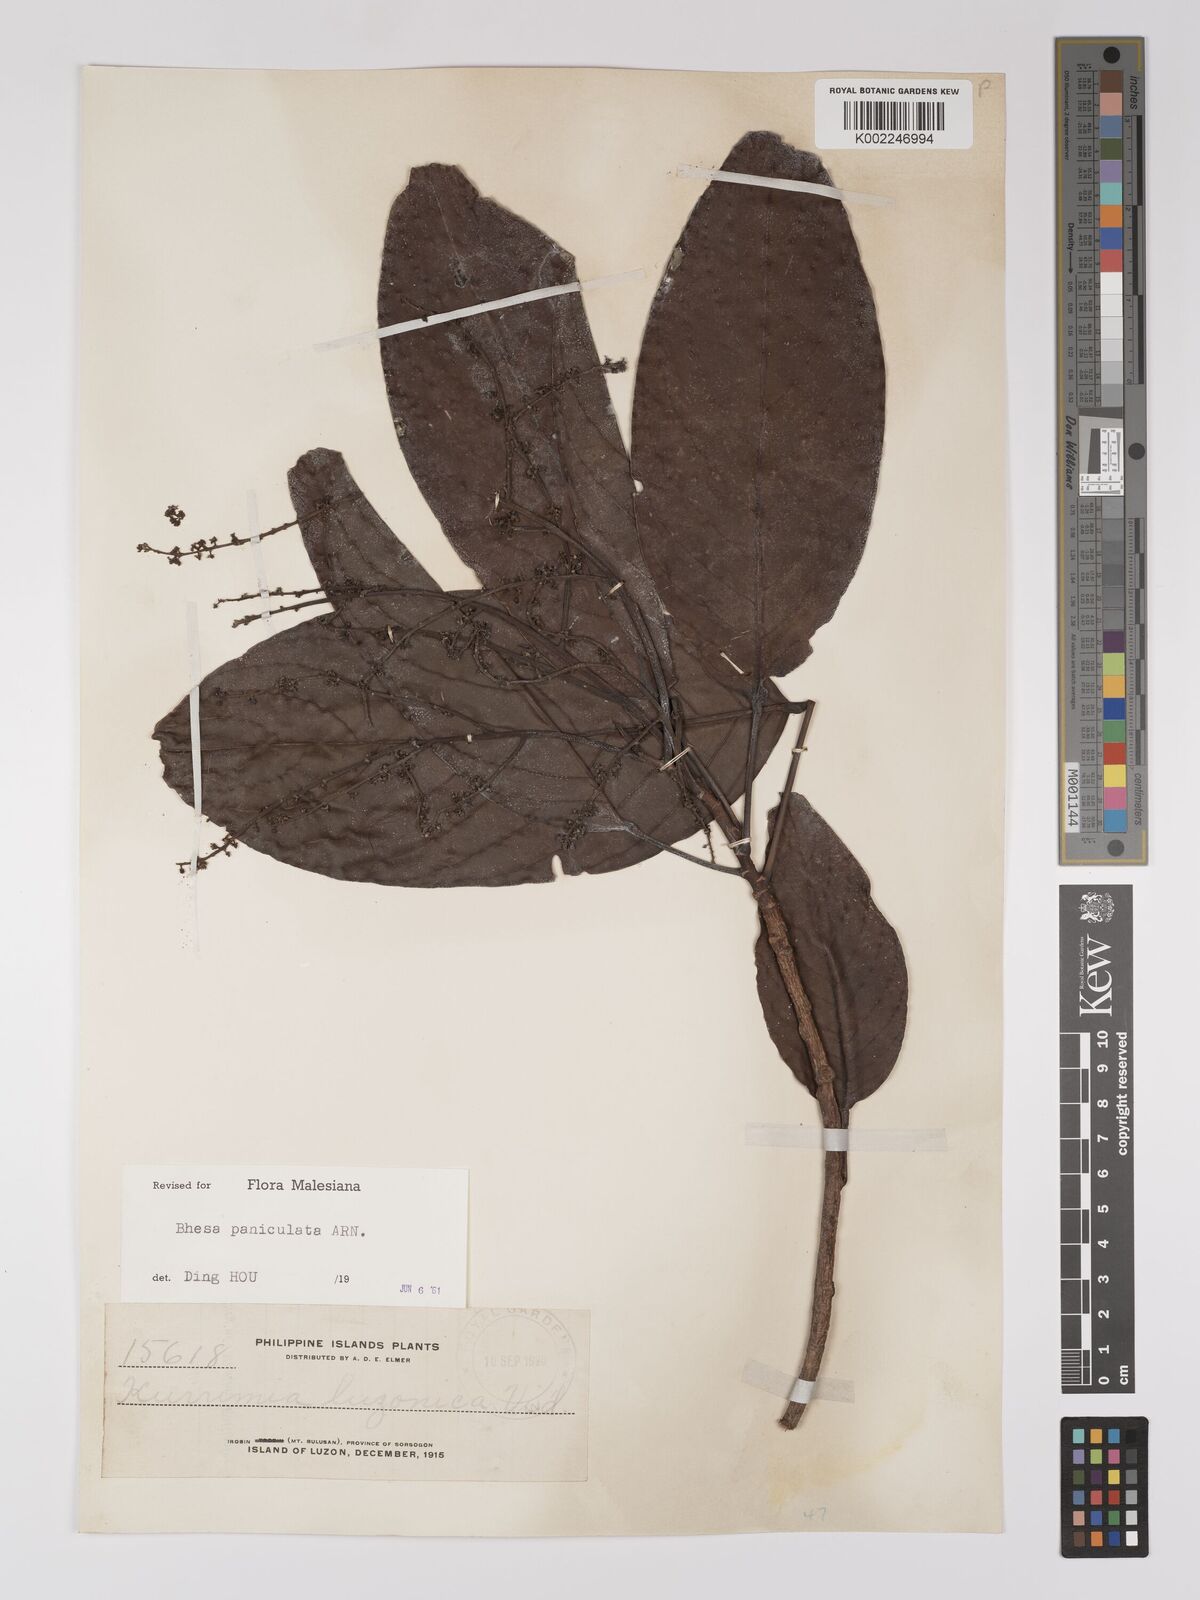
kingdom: Plantae
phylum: Tracheophyta
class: Magnoliopsida
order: Malpighiales
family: Centroplacaceae
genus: Bhesa
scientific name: Bhesa paniculata
